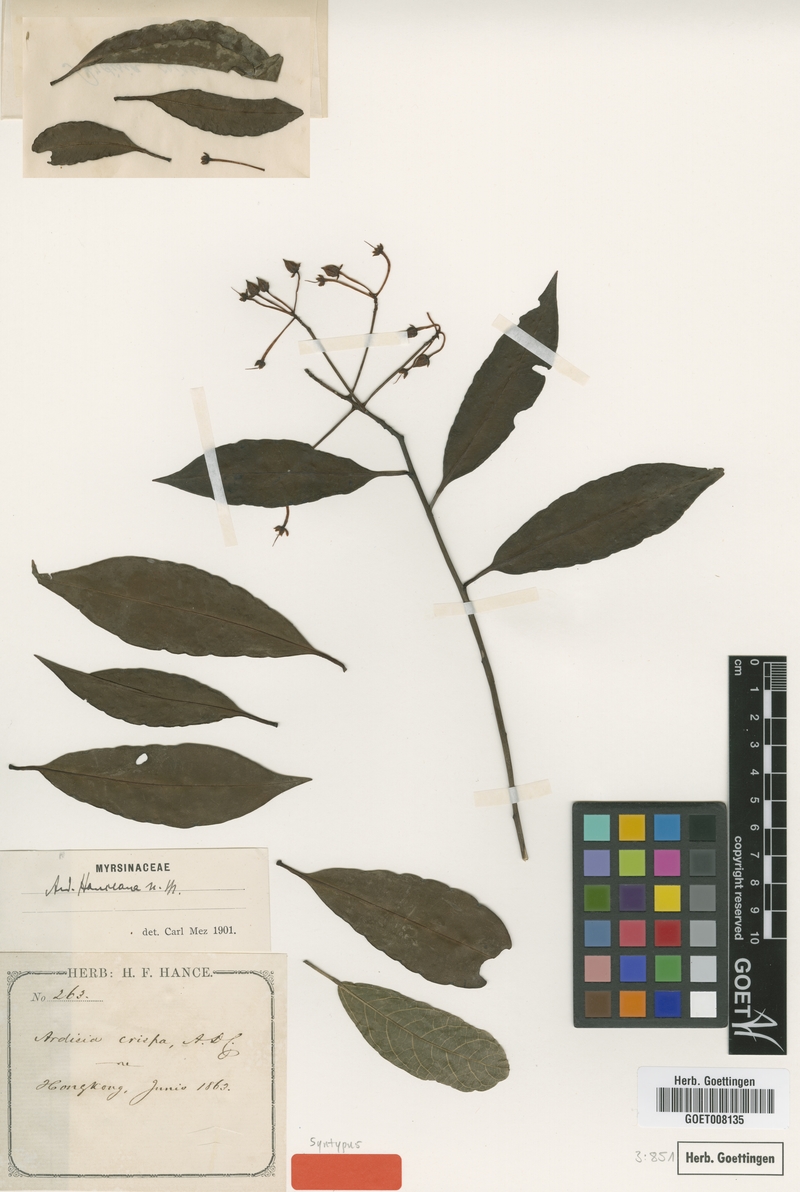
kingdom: Plantae
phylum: Tracheophyta
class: Magnoliopsida
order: Ericales
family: Primulaceae
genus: Ardisia
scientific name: Ardisia hanceana
